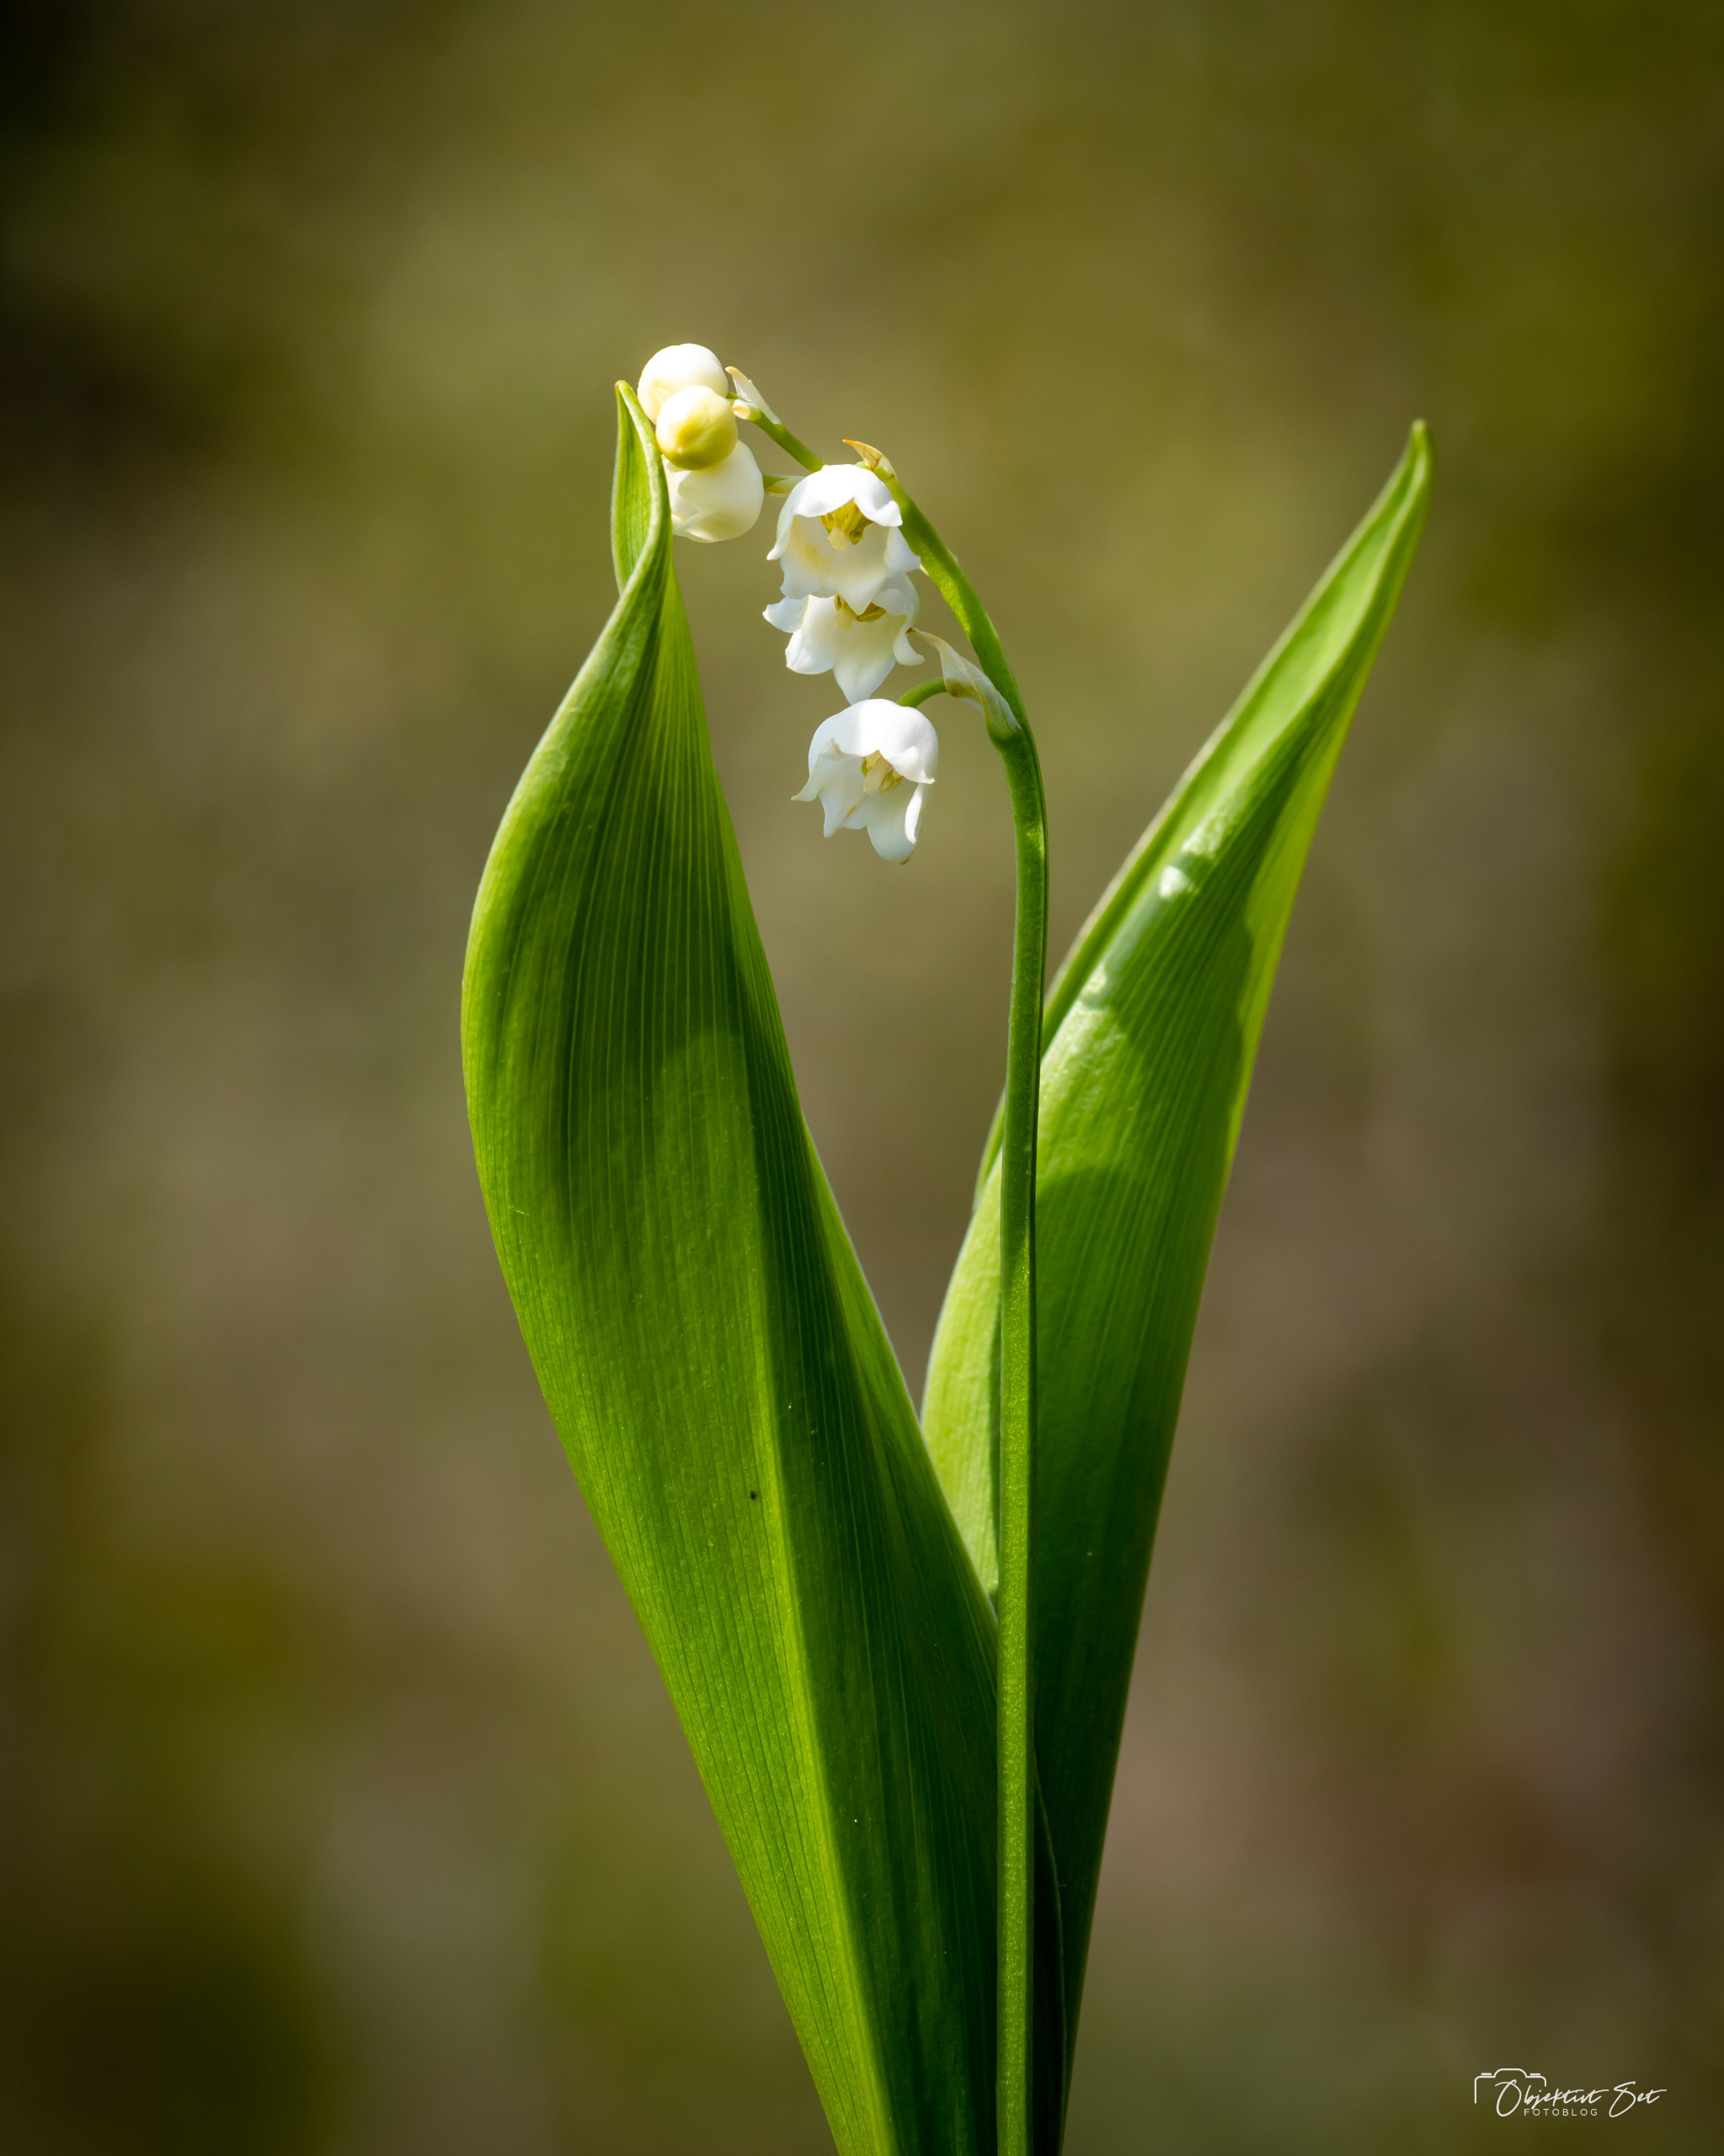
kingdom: Plantae
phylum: Tracheophyta
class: Liliopsida
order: Asparagales
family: Asparagaceae
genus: Convallaria
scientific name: Convallaria majalis
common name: Liljekonval
